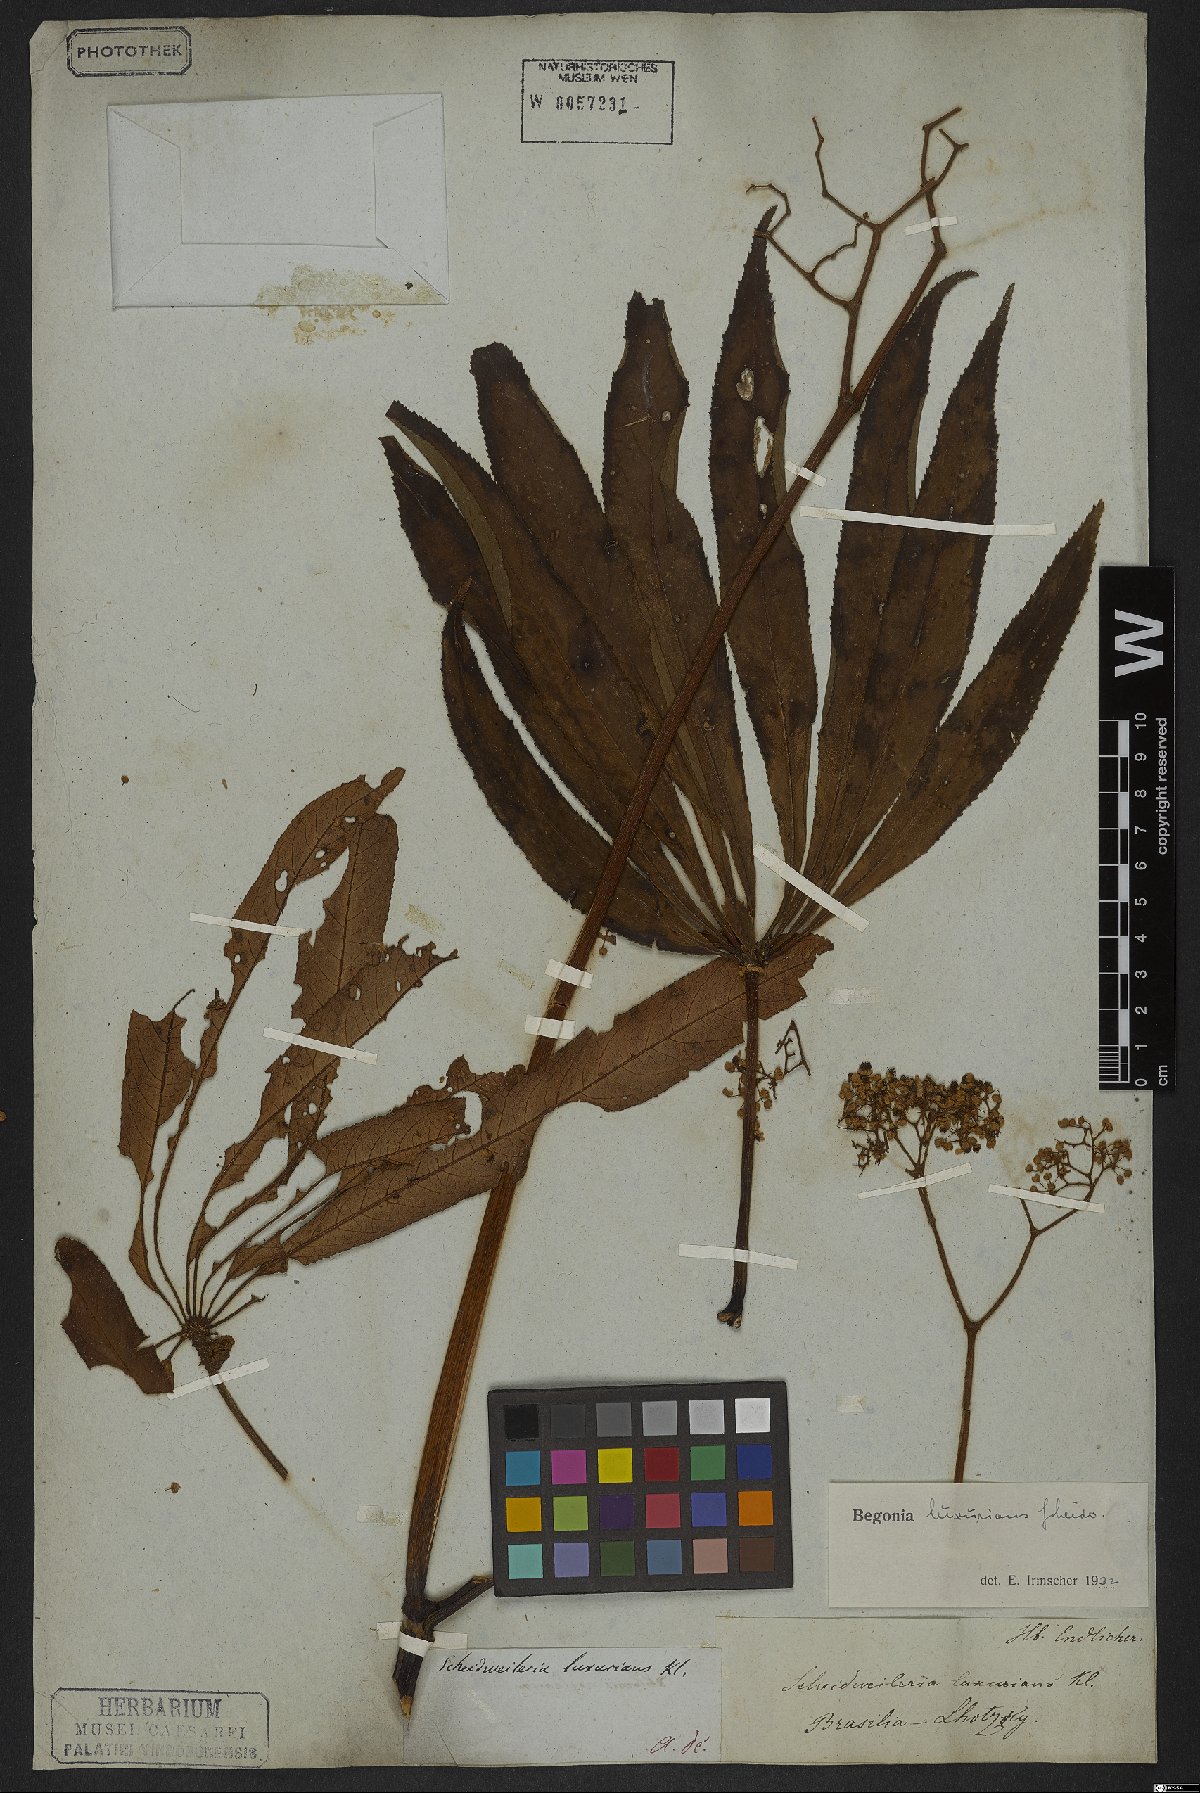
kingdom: Plantae
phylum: Tracheophyta
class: Magnoliopsida
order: Cucurbitales
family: Begoniaceae
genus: Begonia
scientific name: Begonia luxurians
